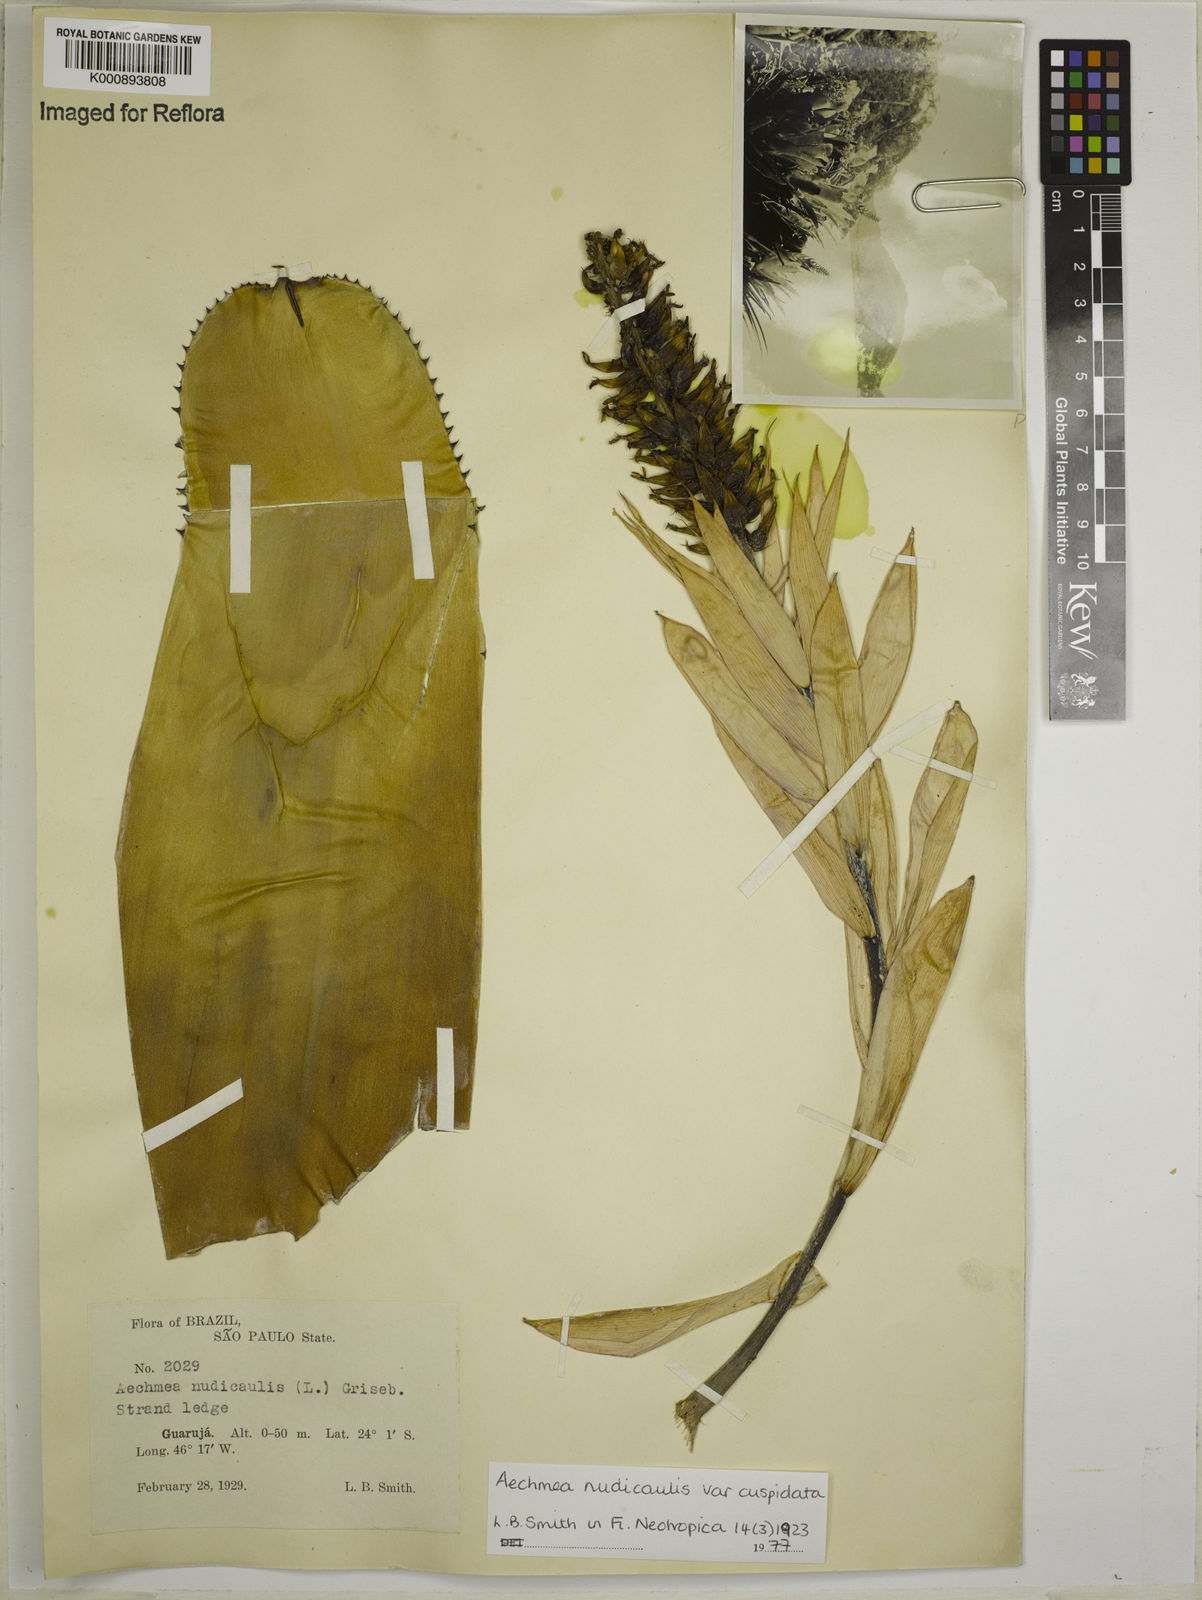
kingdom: Plantae
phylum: Tracheophyta
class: Liliopsida
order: Poales
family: Bromeliaceae
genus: Aechmea
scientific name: Aechmea nudicaulis
